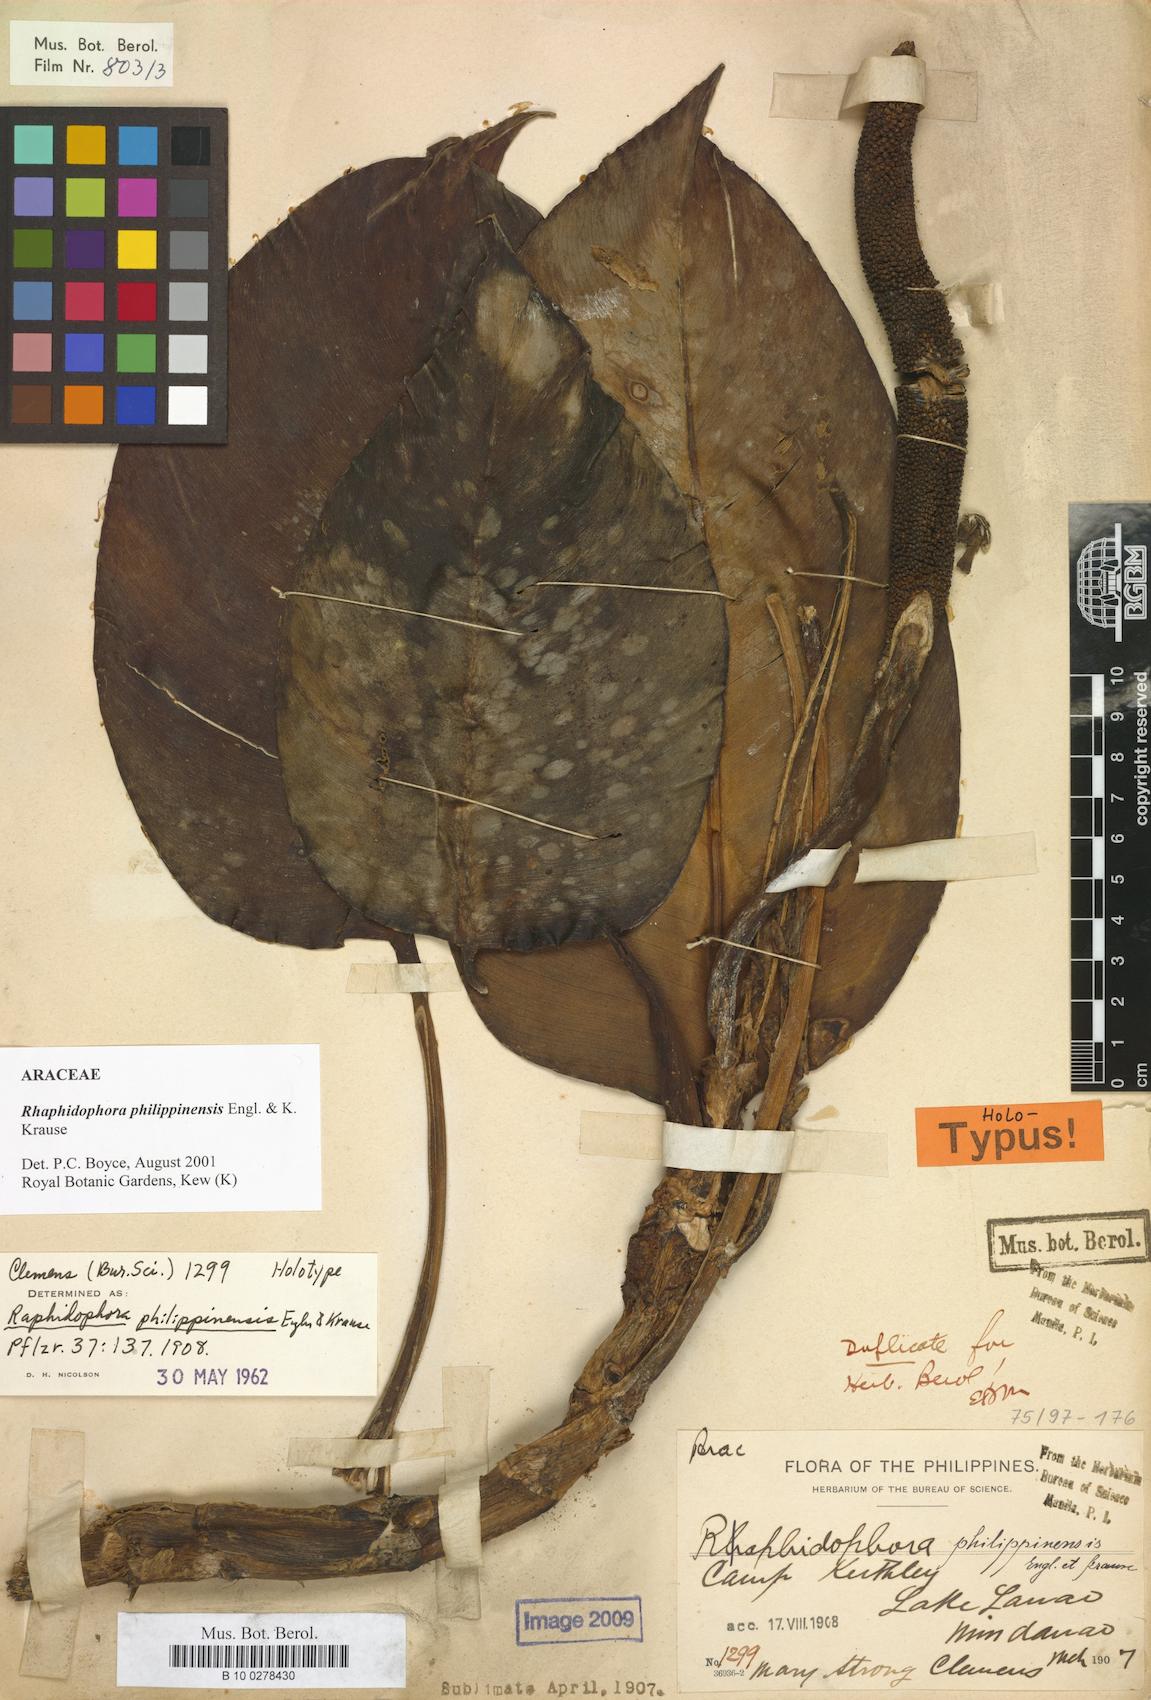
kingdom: Plantae
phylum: Tracheophyta
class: Liliopsida
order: Alismatales
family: Araceae
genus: Rhaphidophora
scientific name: Rhaphidophora philippinensis
